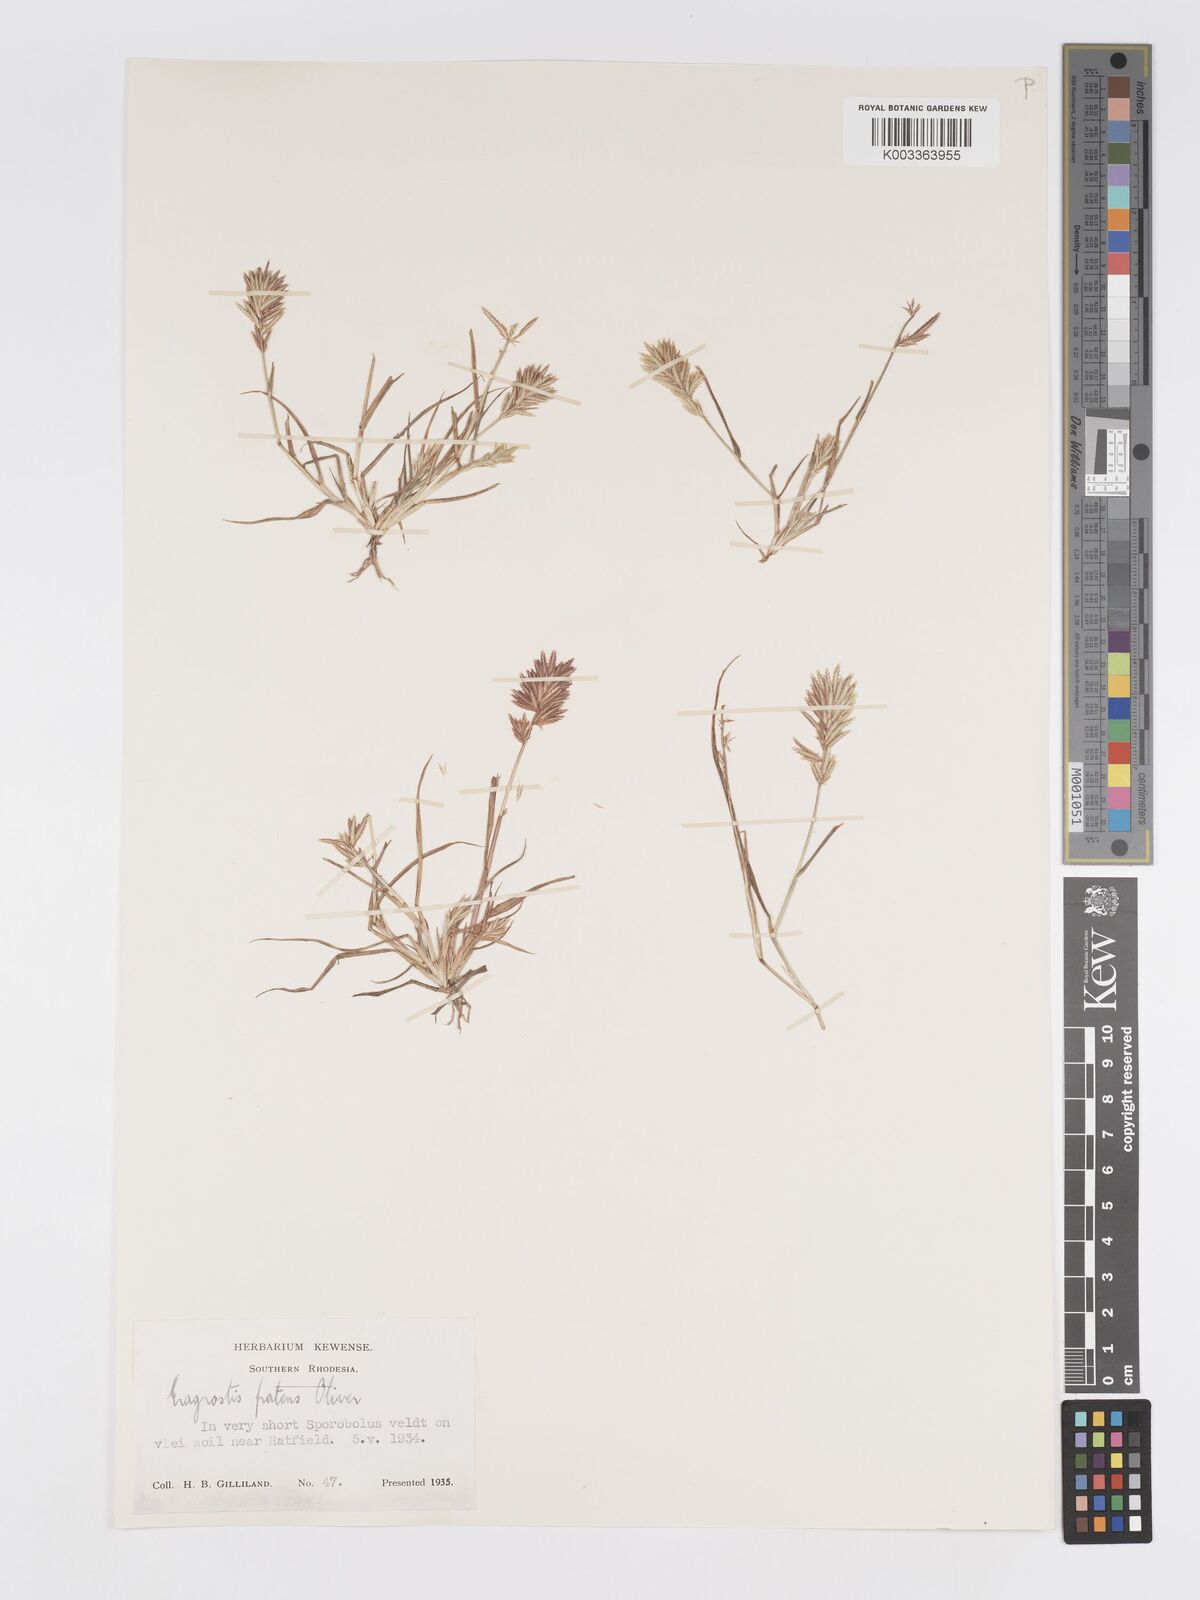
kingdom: Plantae
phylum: Tracheophyta
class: Liliopsida
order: Poales
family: Poaceae
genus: Eragrostis
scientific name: Eragrostis patens
